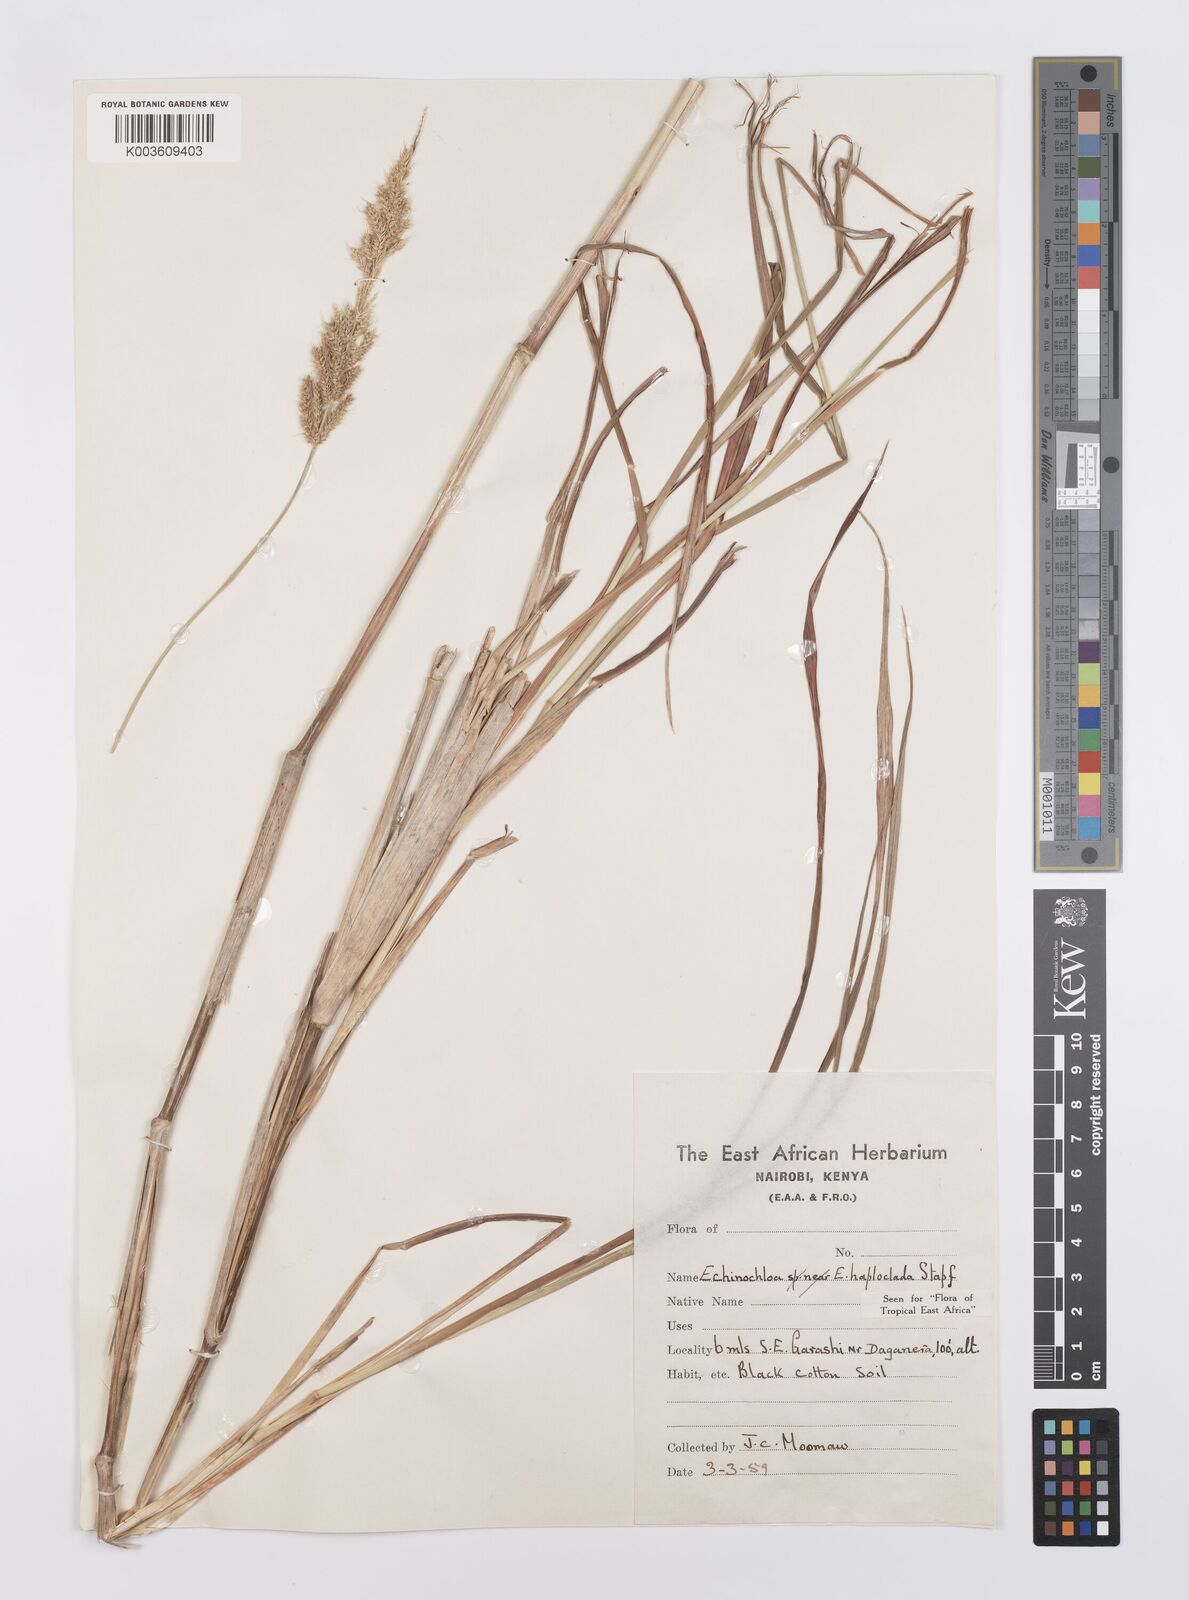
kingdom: Plantae
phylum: Tracheophyta
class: Liliopsida
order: Poales
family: Poaceae
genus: Echinochloa
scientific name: Echinochloa haploclada
